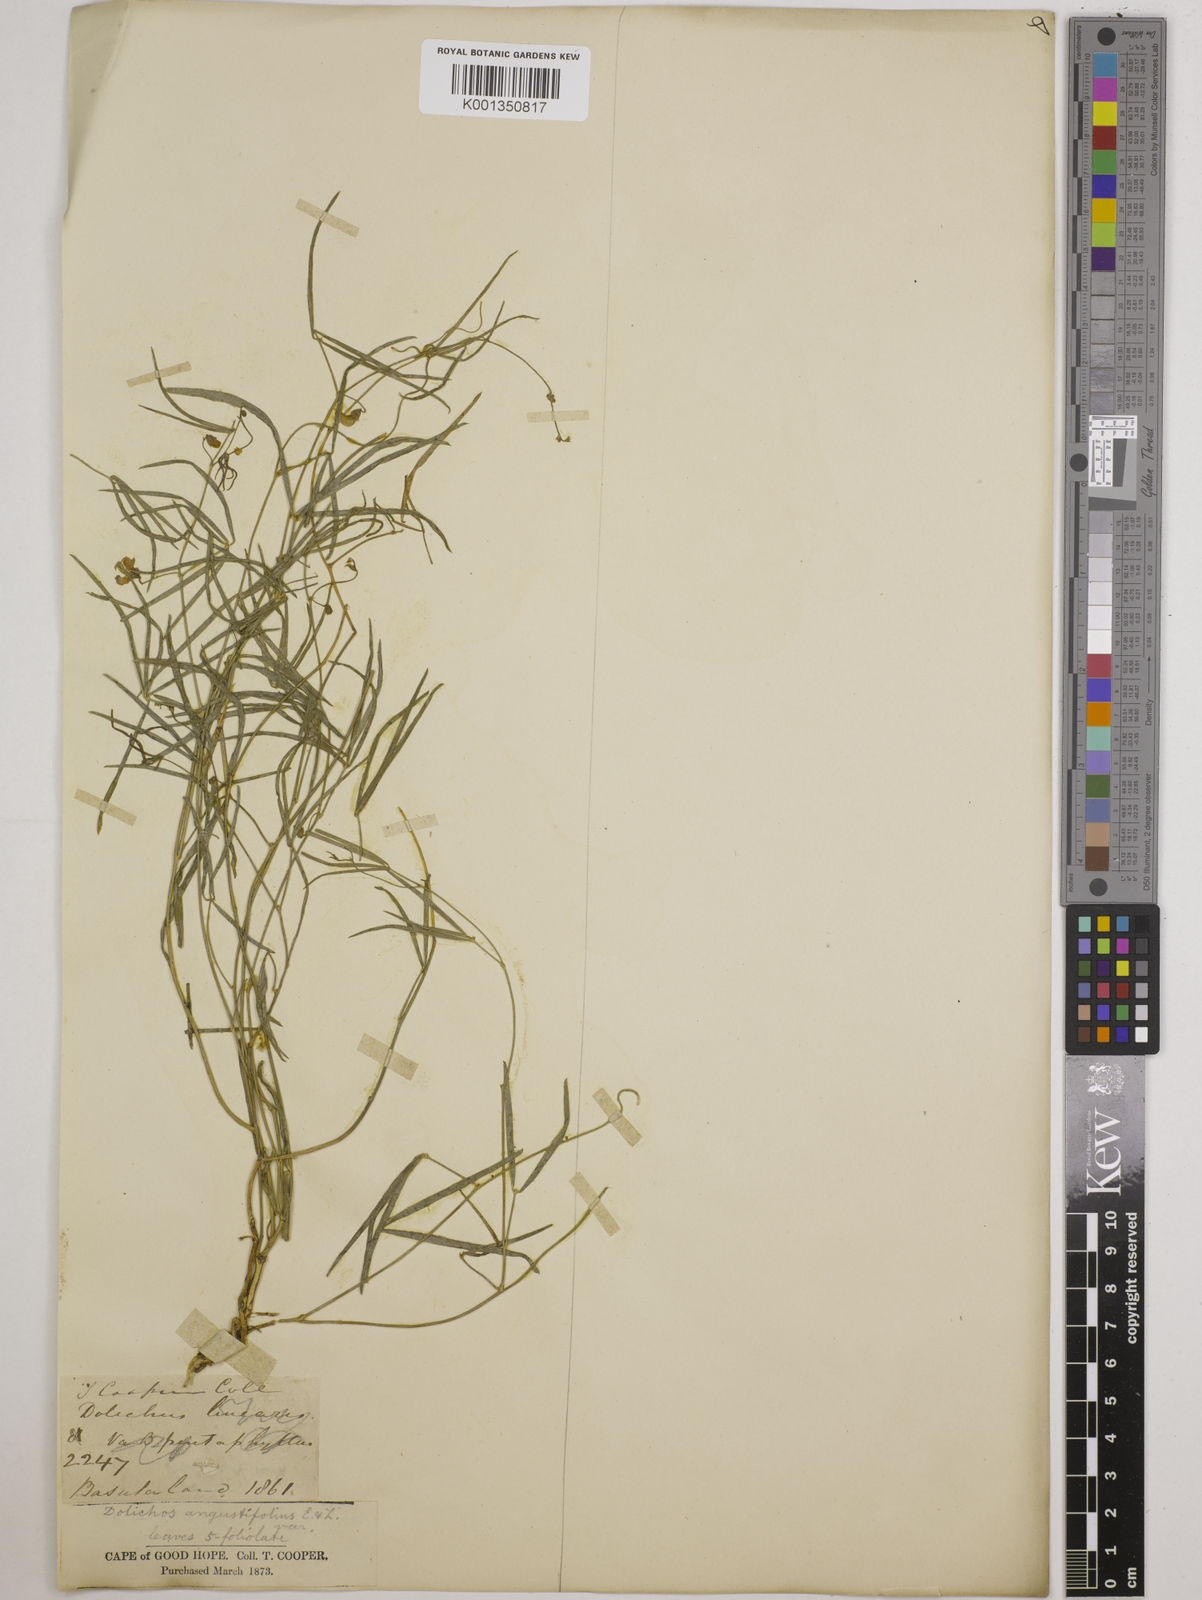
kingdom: Plantae
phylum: Tracheophyta
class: Magnoliopsida
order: Fabales
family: Fabaceae
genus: Dolichos
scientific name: Dolichos
